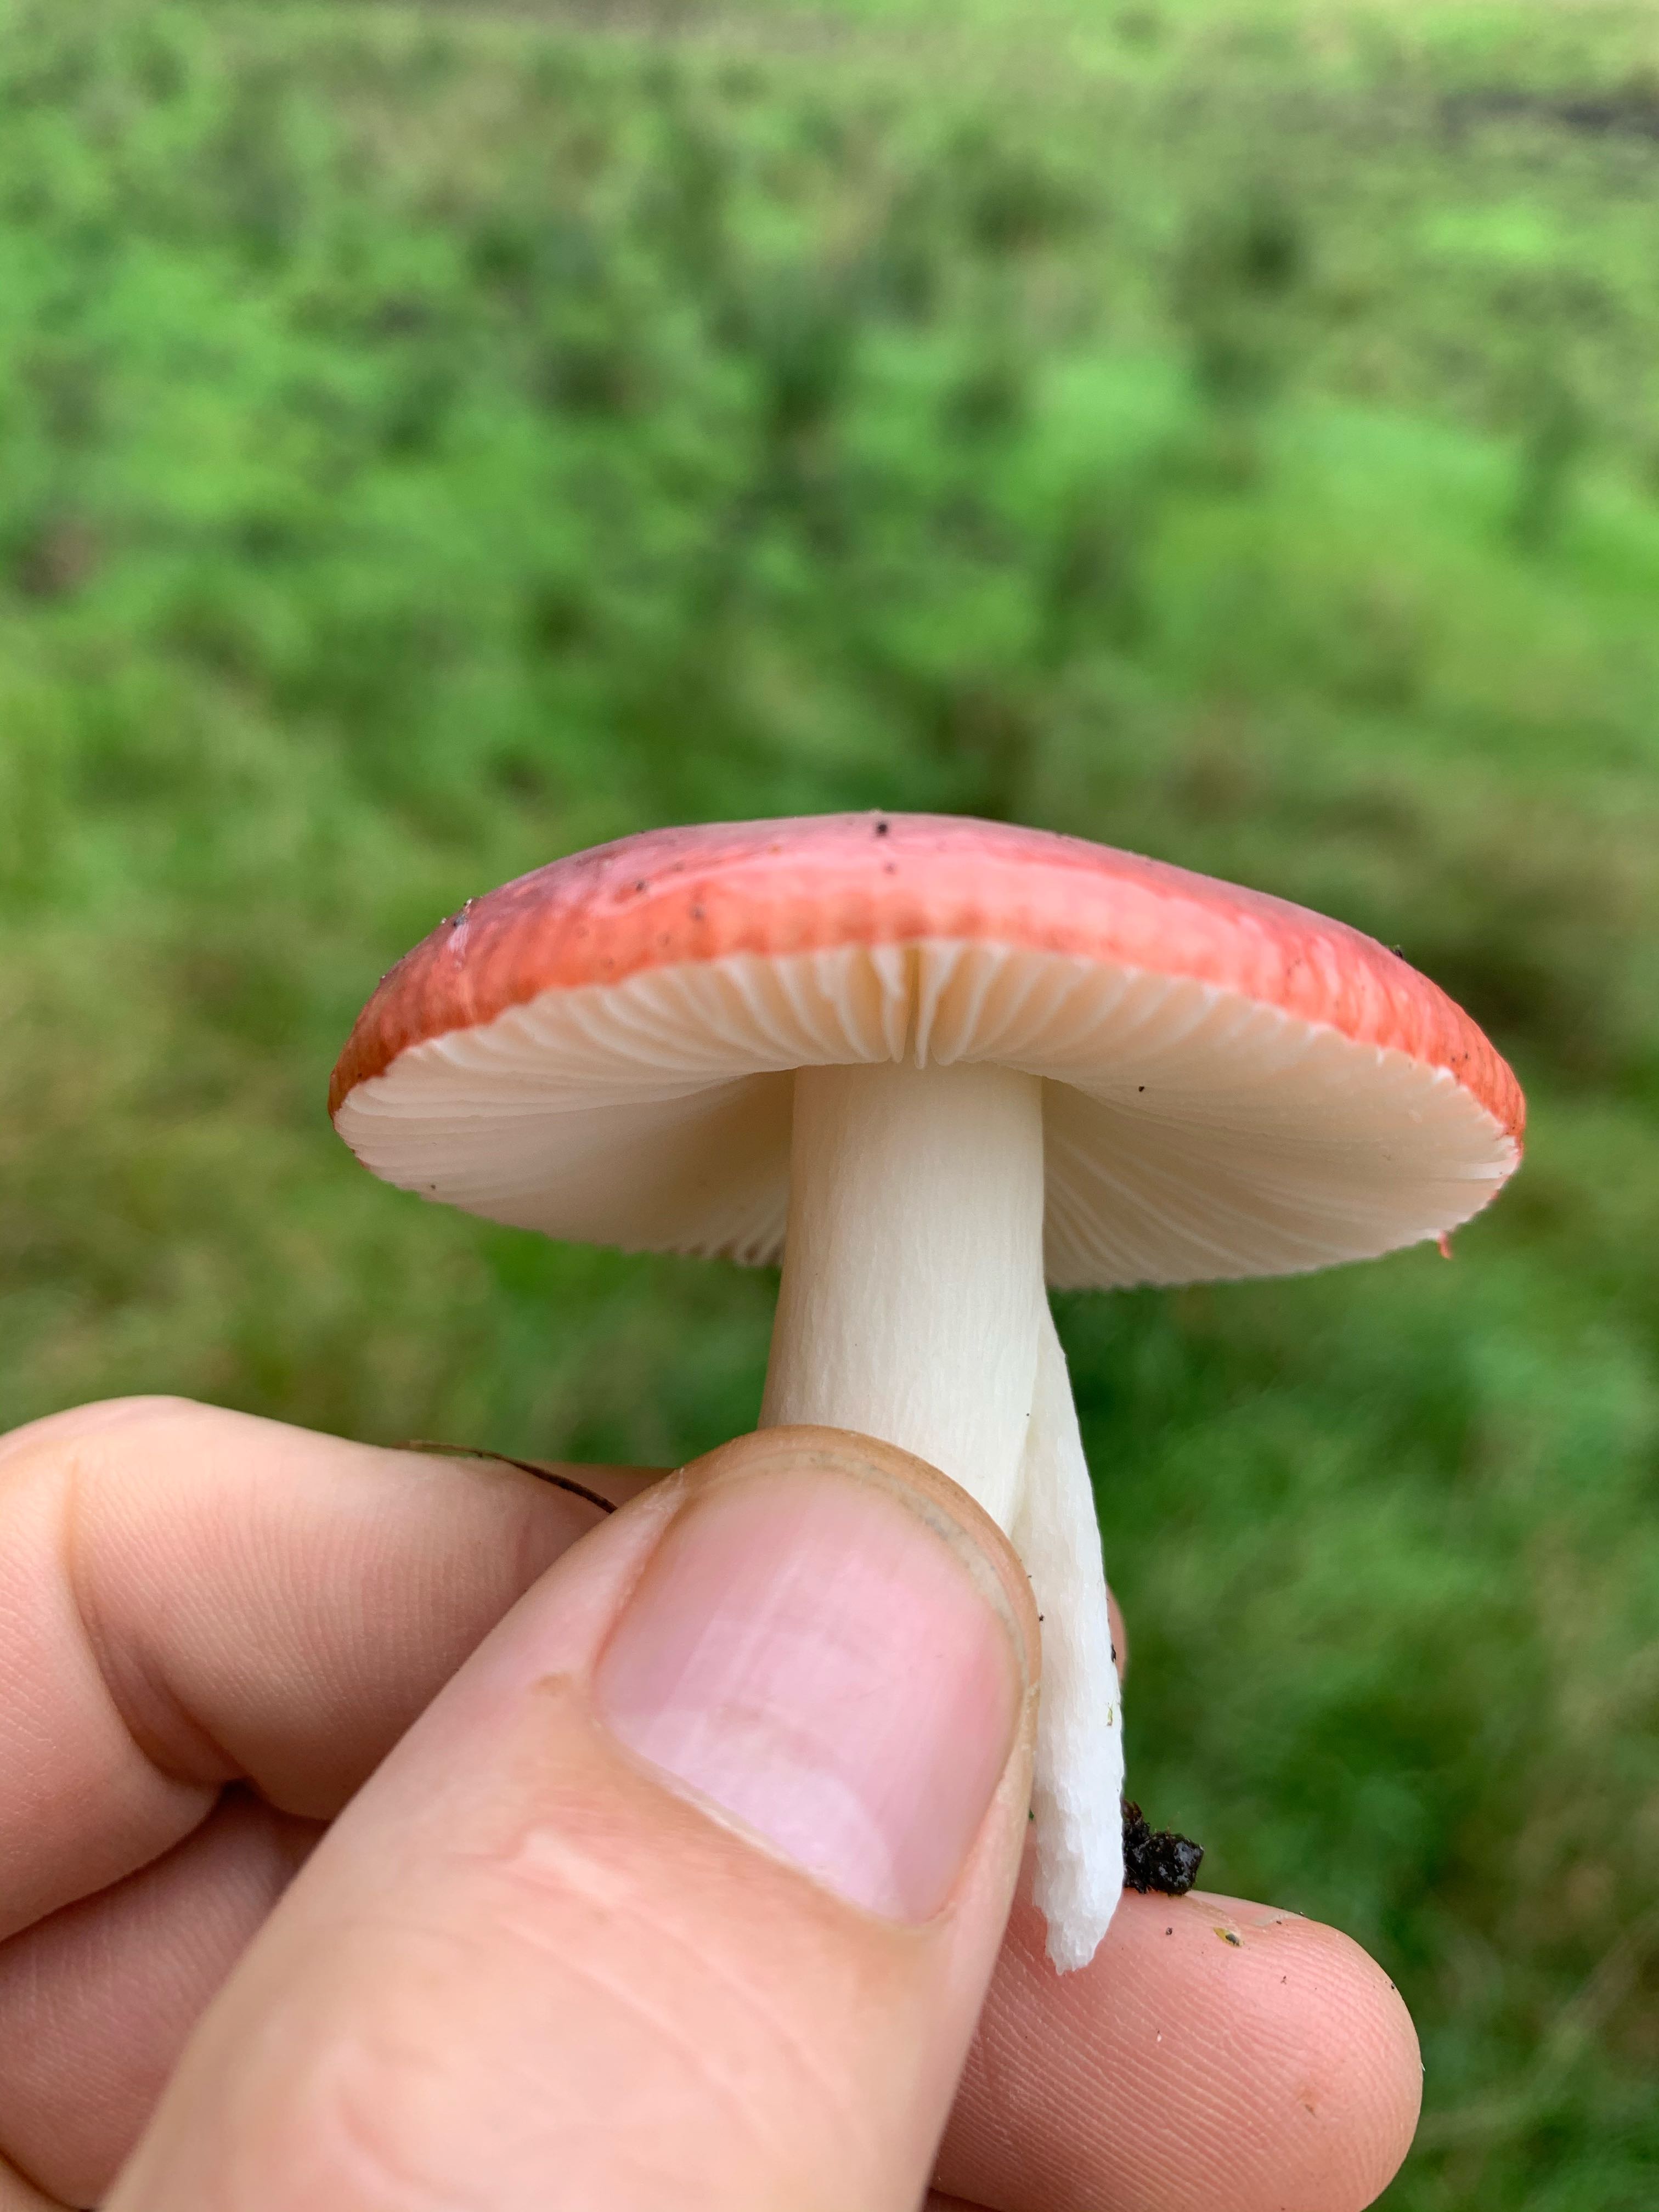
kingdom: Fungi
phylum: Basidiomycota
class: Agaricomycetes
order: Russulales
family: Russulaceae
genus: Russula
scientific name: Russula fragilis
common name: savbladet skørhat
